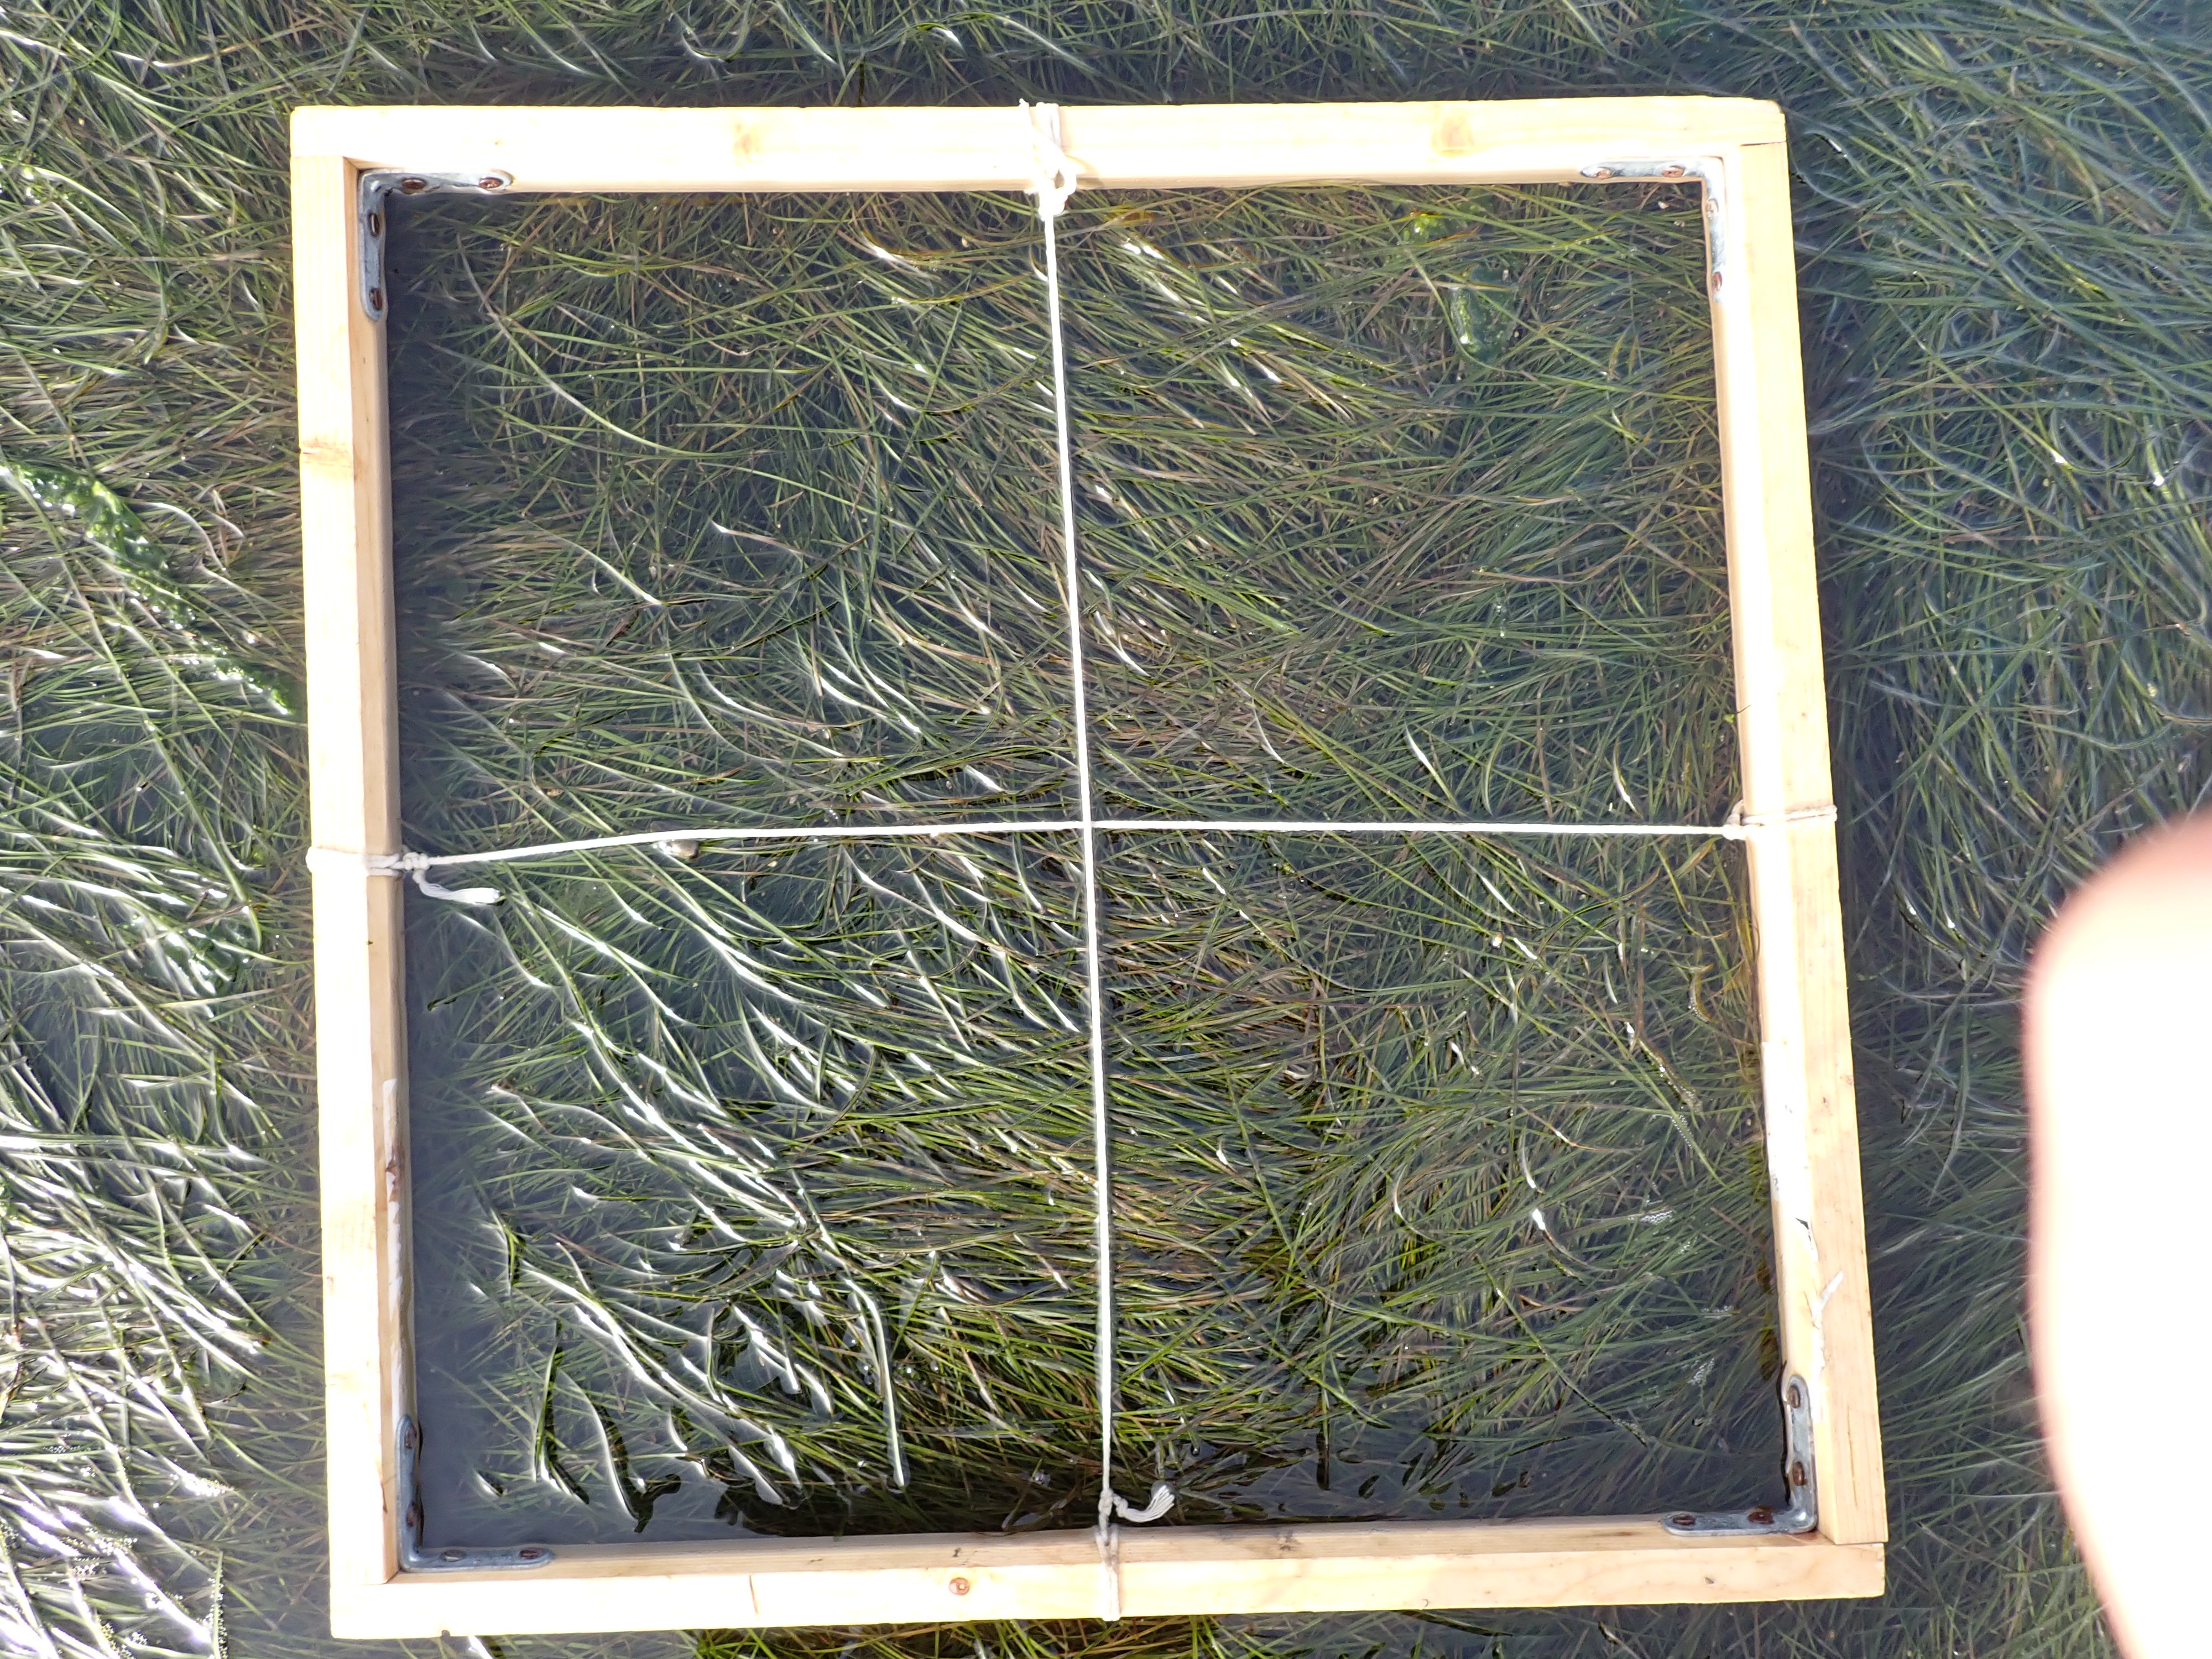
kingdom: Plantae
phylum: Tracheophyta
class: Liliopsida
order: Alismatales
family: Zosteraceae
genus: Zostera
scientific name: Zostera noltii
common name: Dwarf eelgrass
